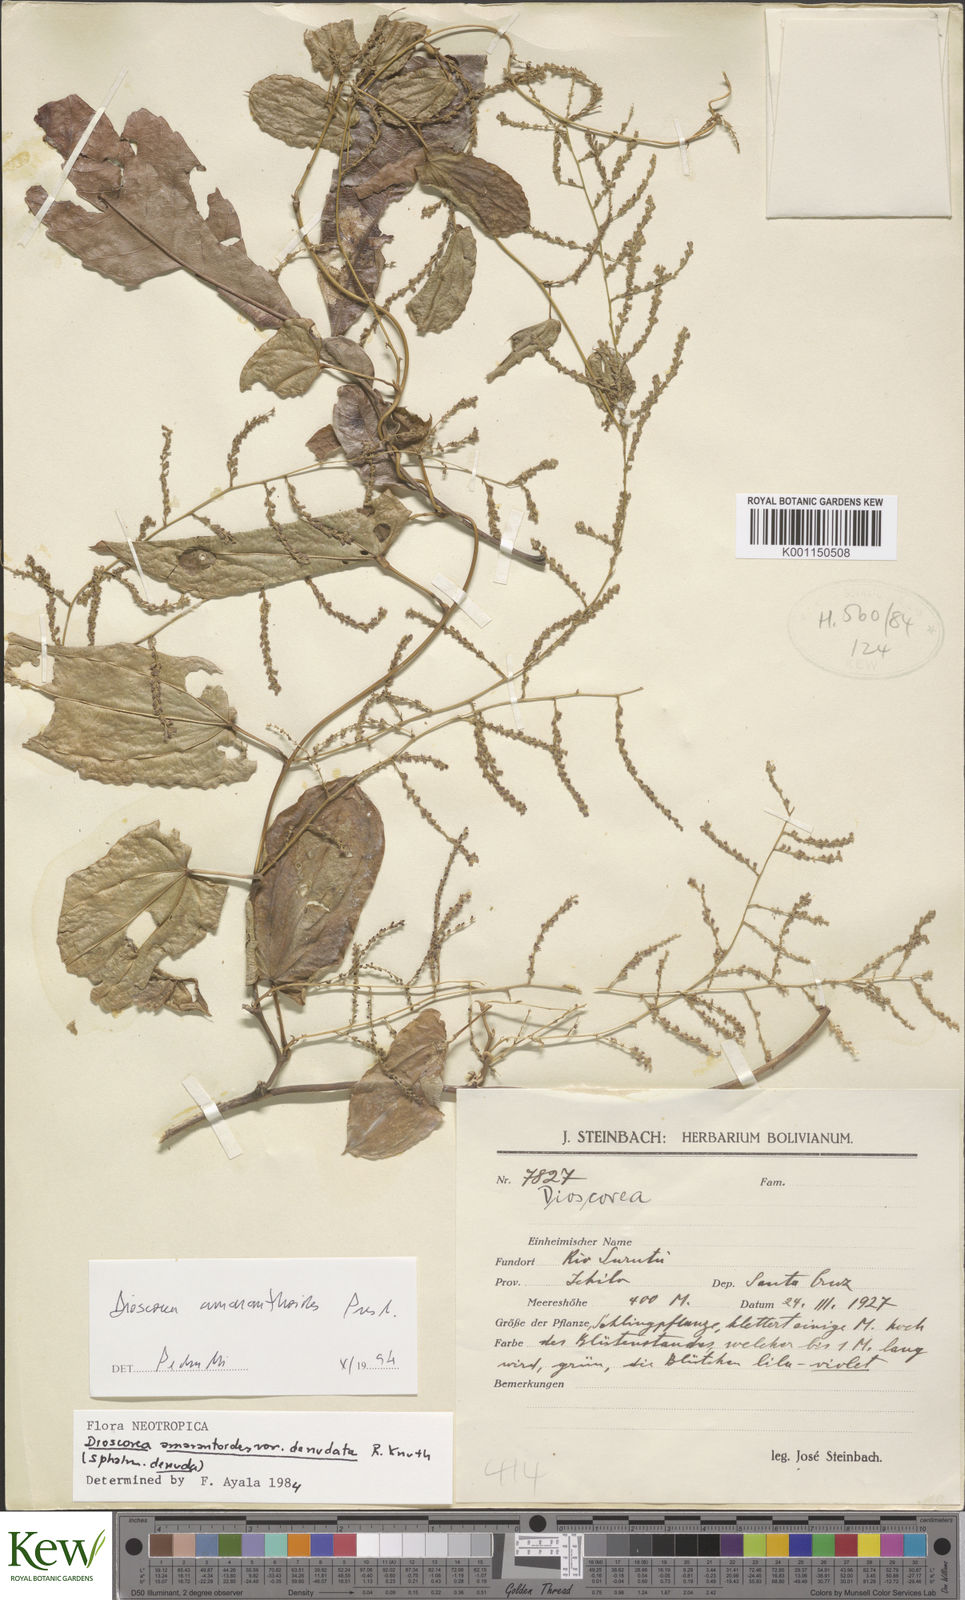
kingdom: Plantae
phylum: Tracheophyta
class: Liliopsida
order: Dioscoreales
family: Dioscoreaceae
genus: Dioscorea
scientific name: Dioscorea amaranthoides
